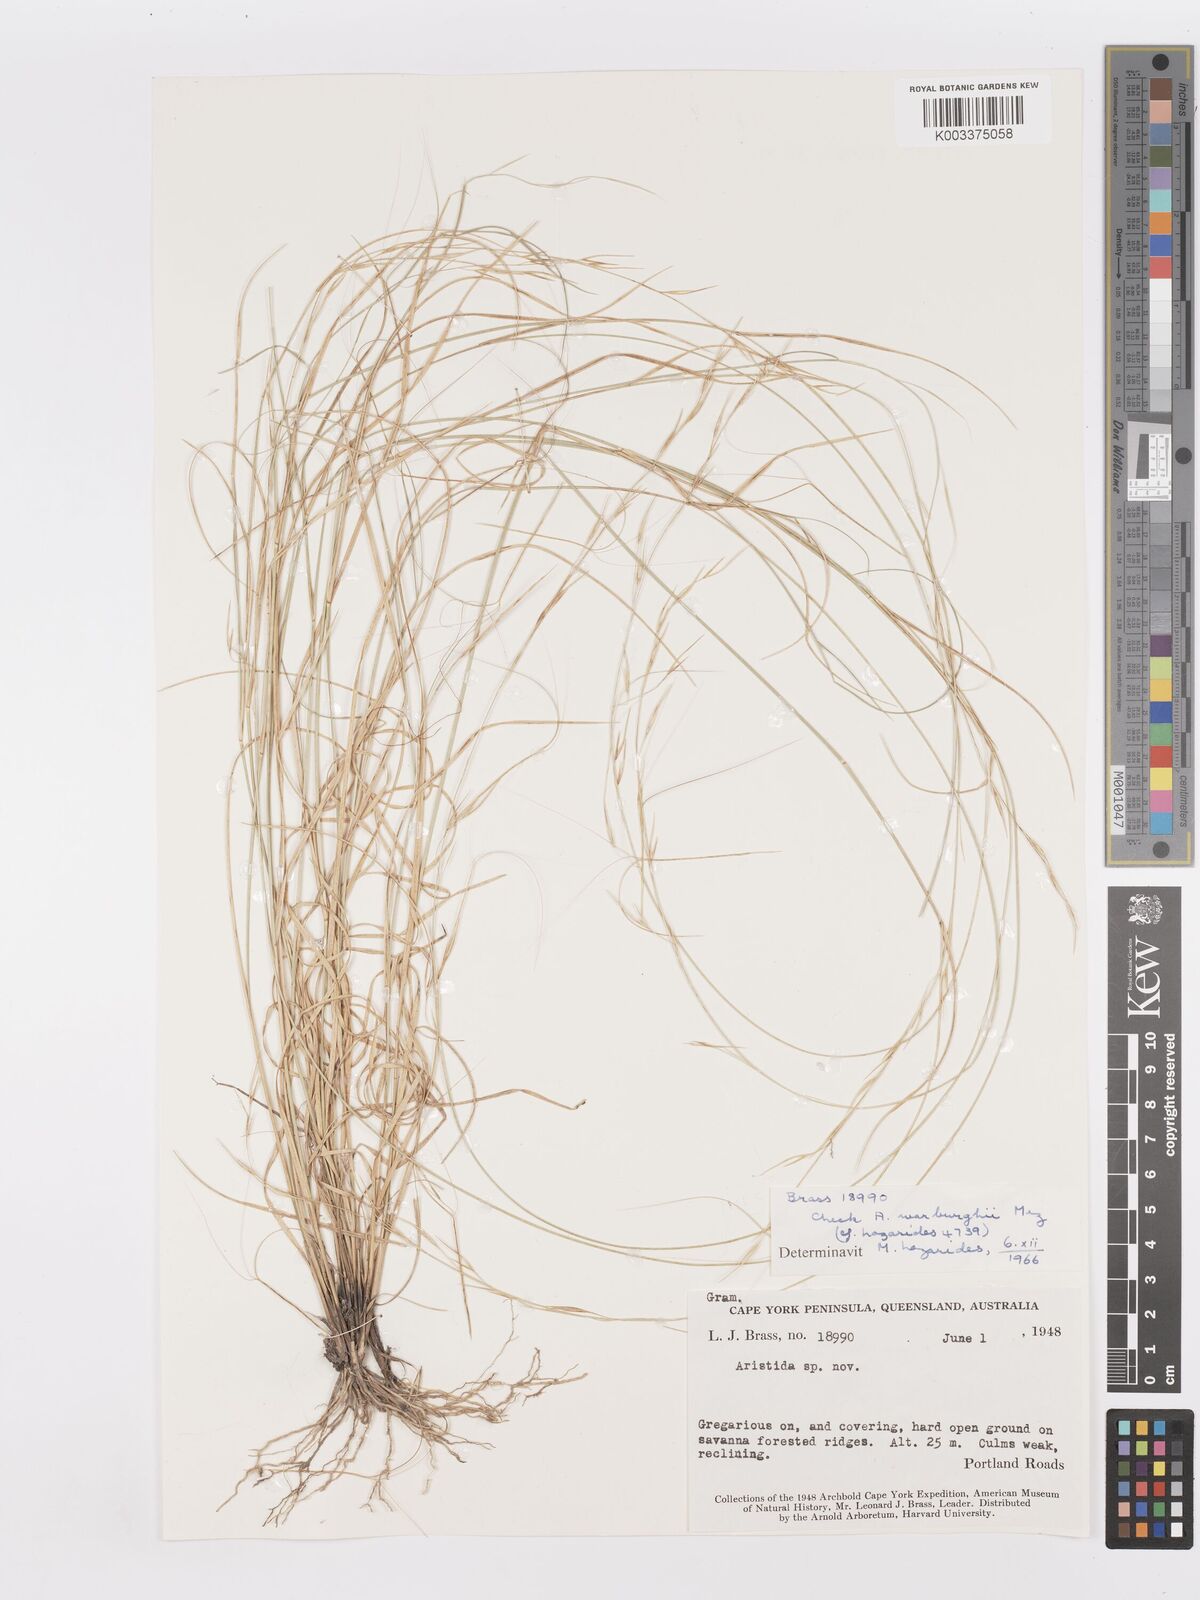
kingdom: Plantae
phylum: Tracheophyta
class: Liliopsida
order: Poales
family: Poaceae
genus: Aristida
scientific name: Aristida warburgii
